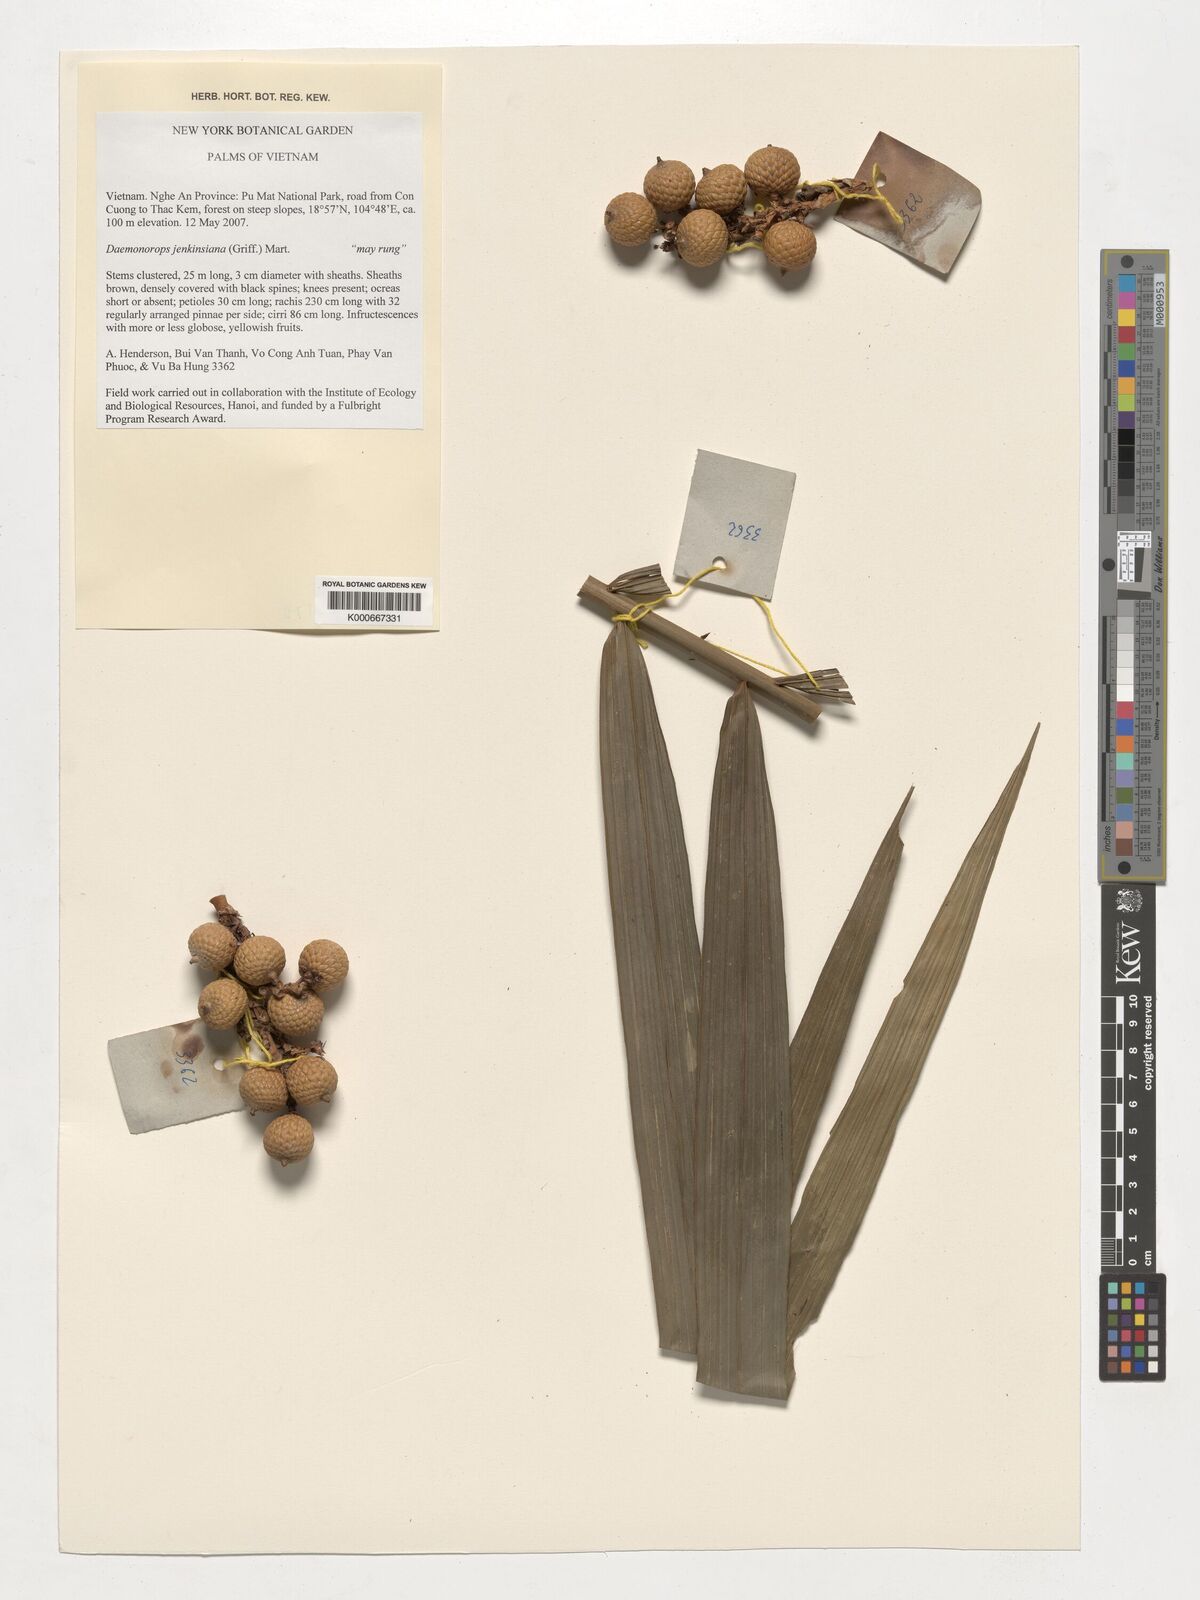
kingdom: Plantae
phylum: Tracheophyta
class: Liliopsida
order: Arecales
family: Arecaceae
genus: Calamus
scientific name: Calamus melanochaetes
